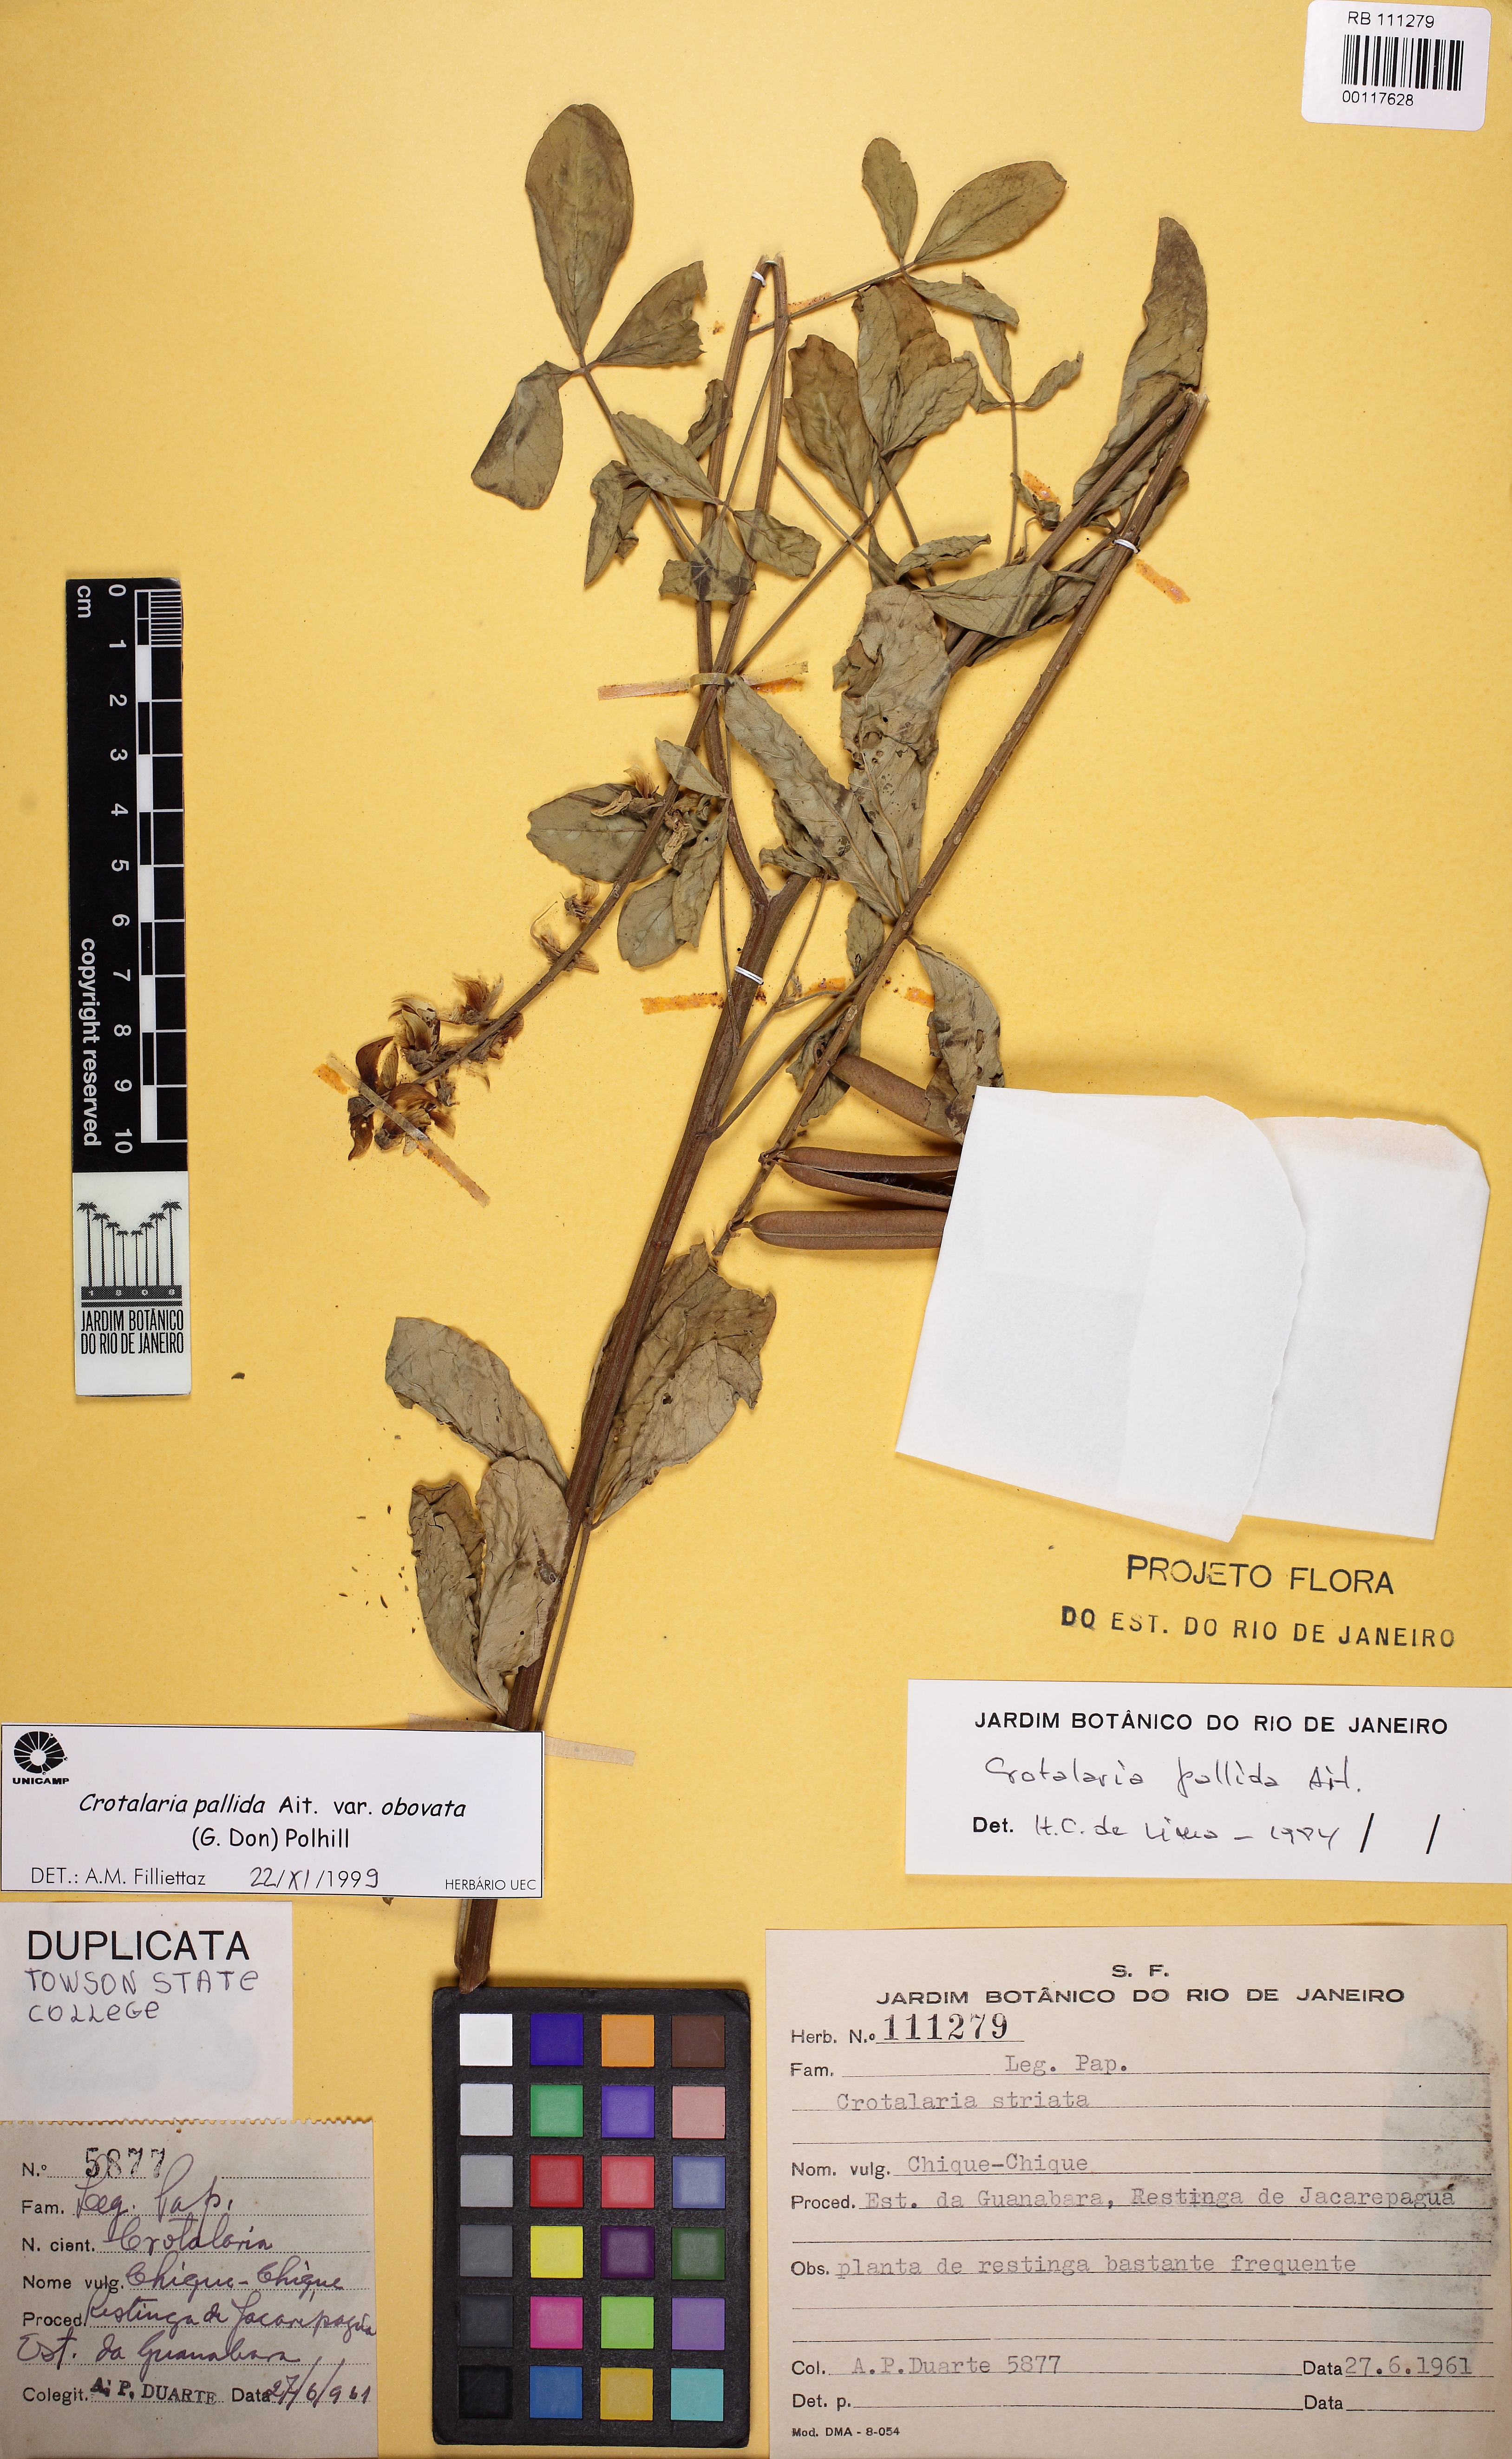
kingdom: Plantae
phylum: Tracheophyta
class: Magnoliopsida
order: Fabales
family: Fabaceae
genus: Crotalaria
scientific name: Crotalaria pallida
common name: Smooth rattlebox
